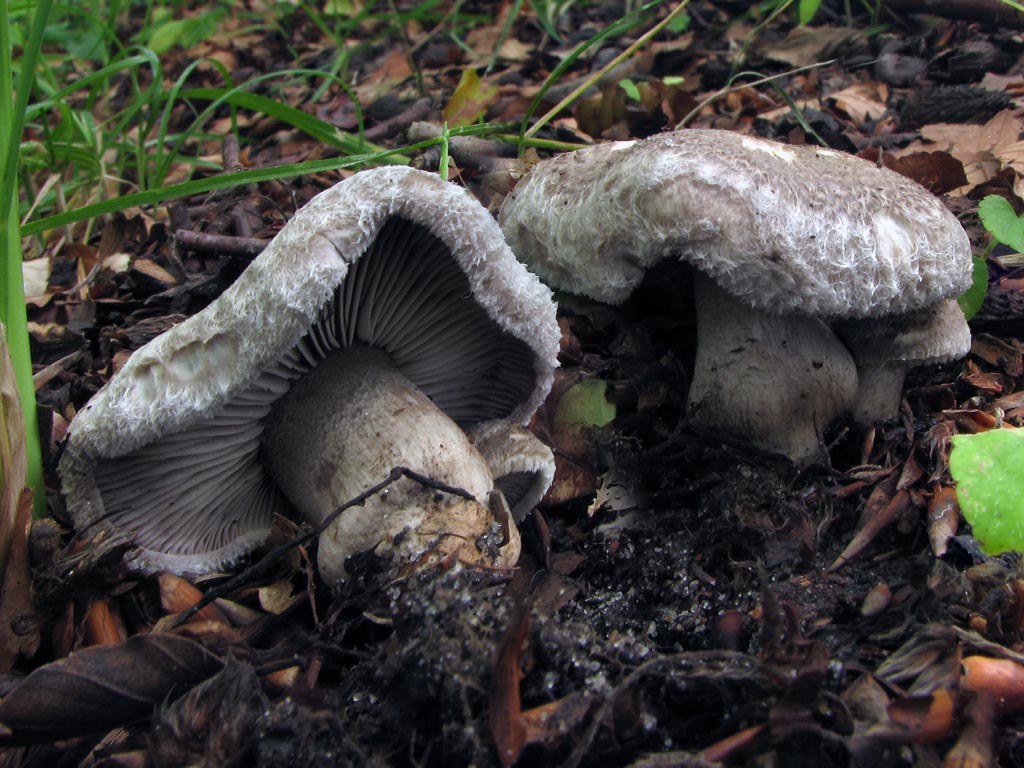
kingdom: Fungi
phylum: Basidiomycota
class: Agaricomycetes
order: Agaricales
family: Tricholomataceae
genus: Tricholoma
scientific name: Tricholoma atrosquamosum
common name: sortskællet ridderhat
